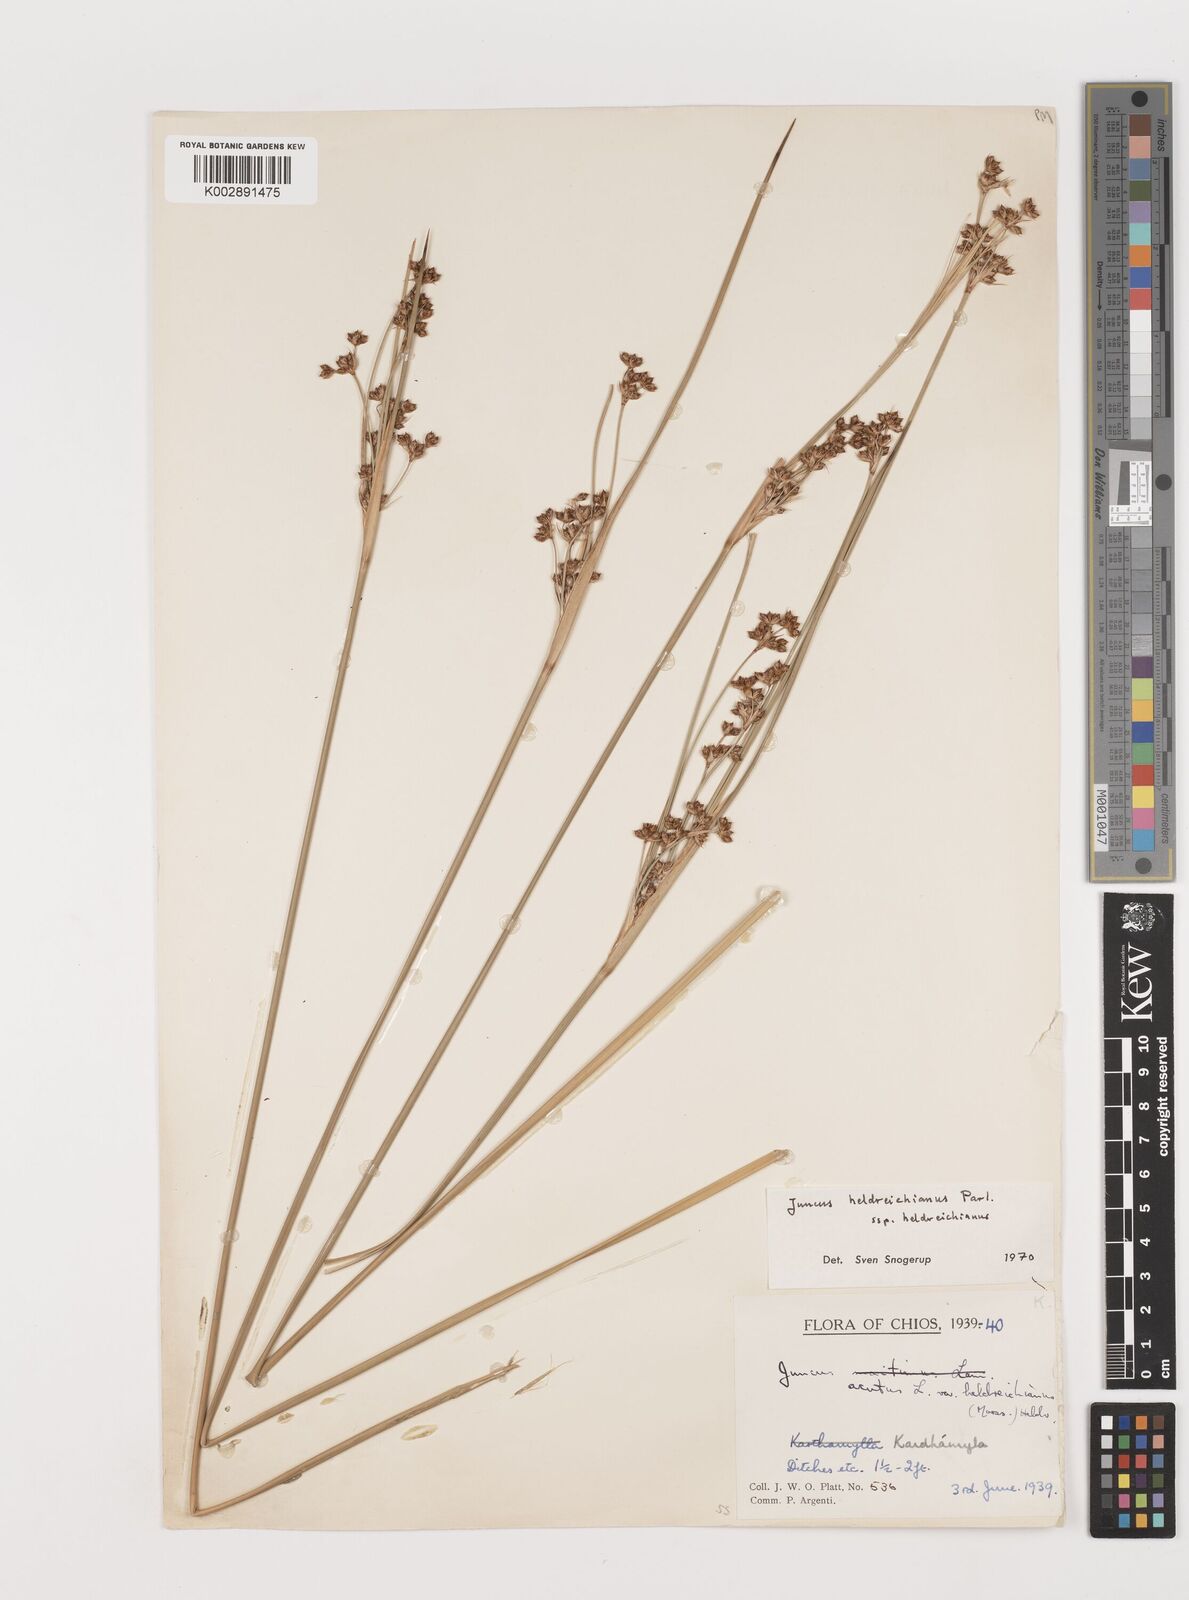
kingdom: Plantae
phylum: Tracheophyta
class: Liliopsida
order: Poales
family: Juncaceae
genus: Juncus
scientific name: Juncus heldreichianus
